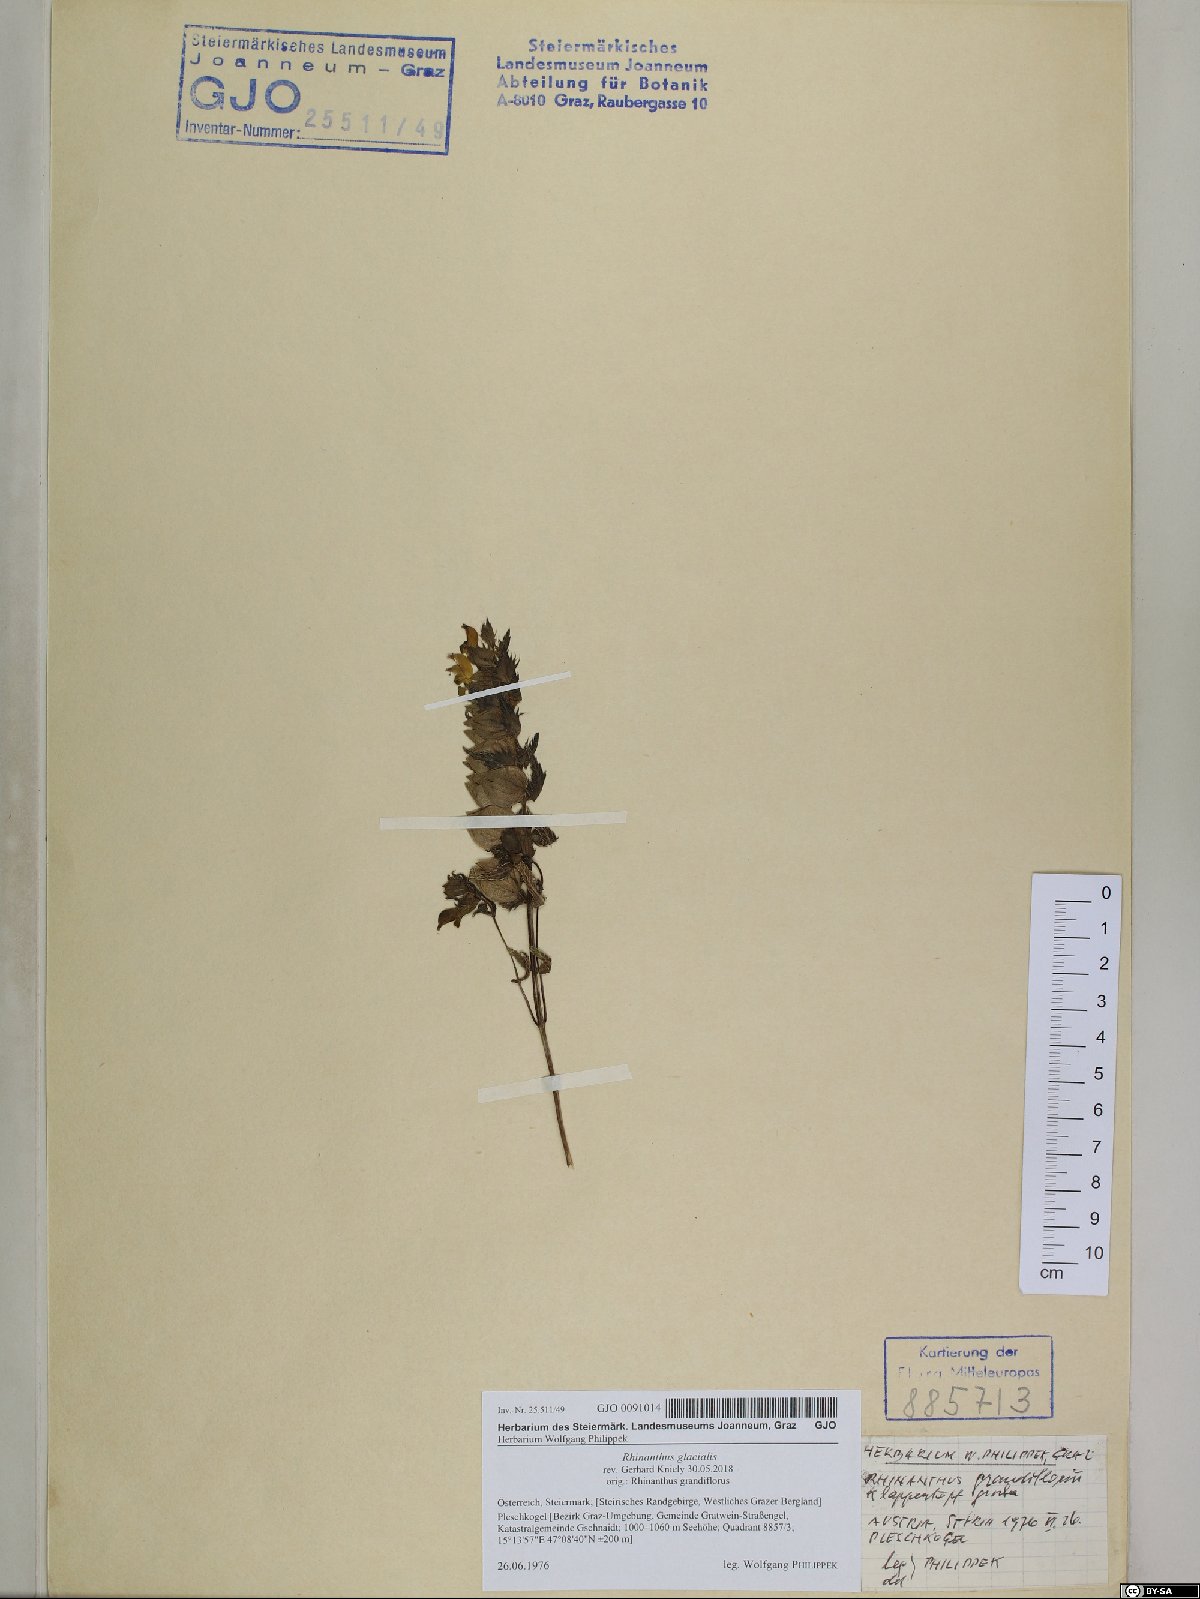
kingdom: Plantae
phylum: Tracheophyta
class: Magnoliopsida
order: Lamiales
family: Orobanchaceae
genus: Rhinanthus
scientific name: Rhinanthus glacialis
